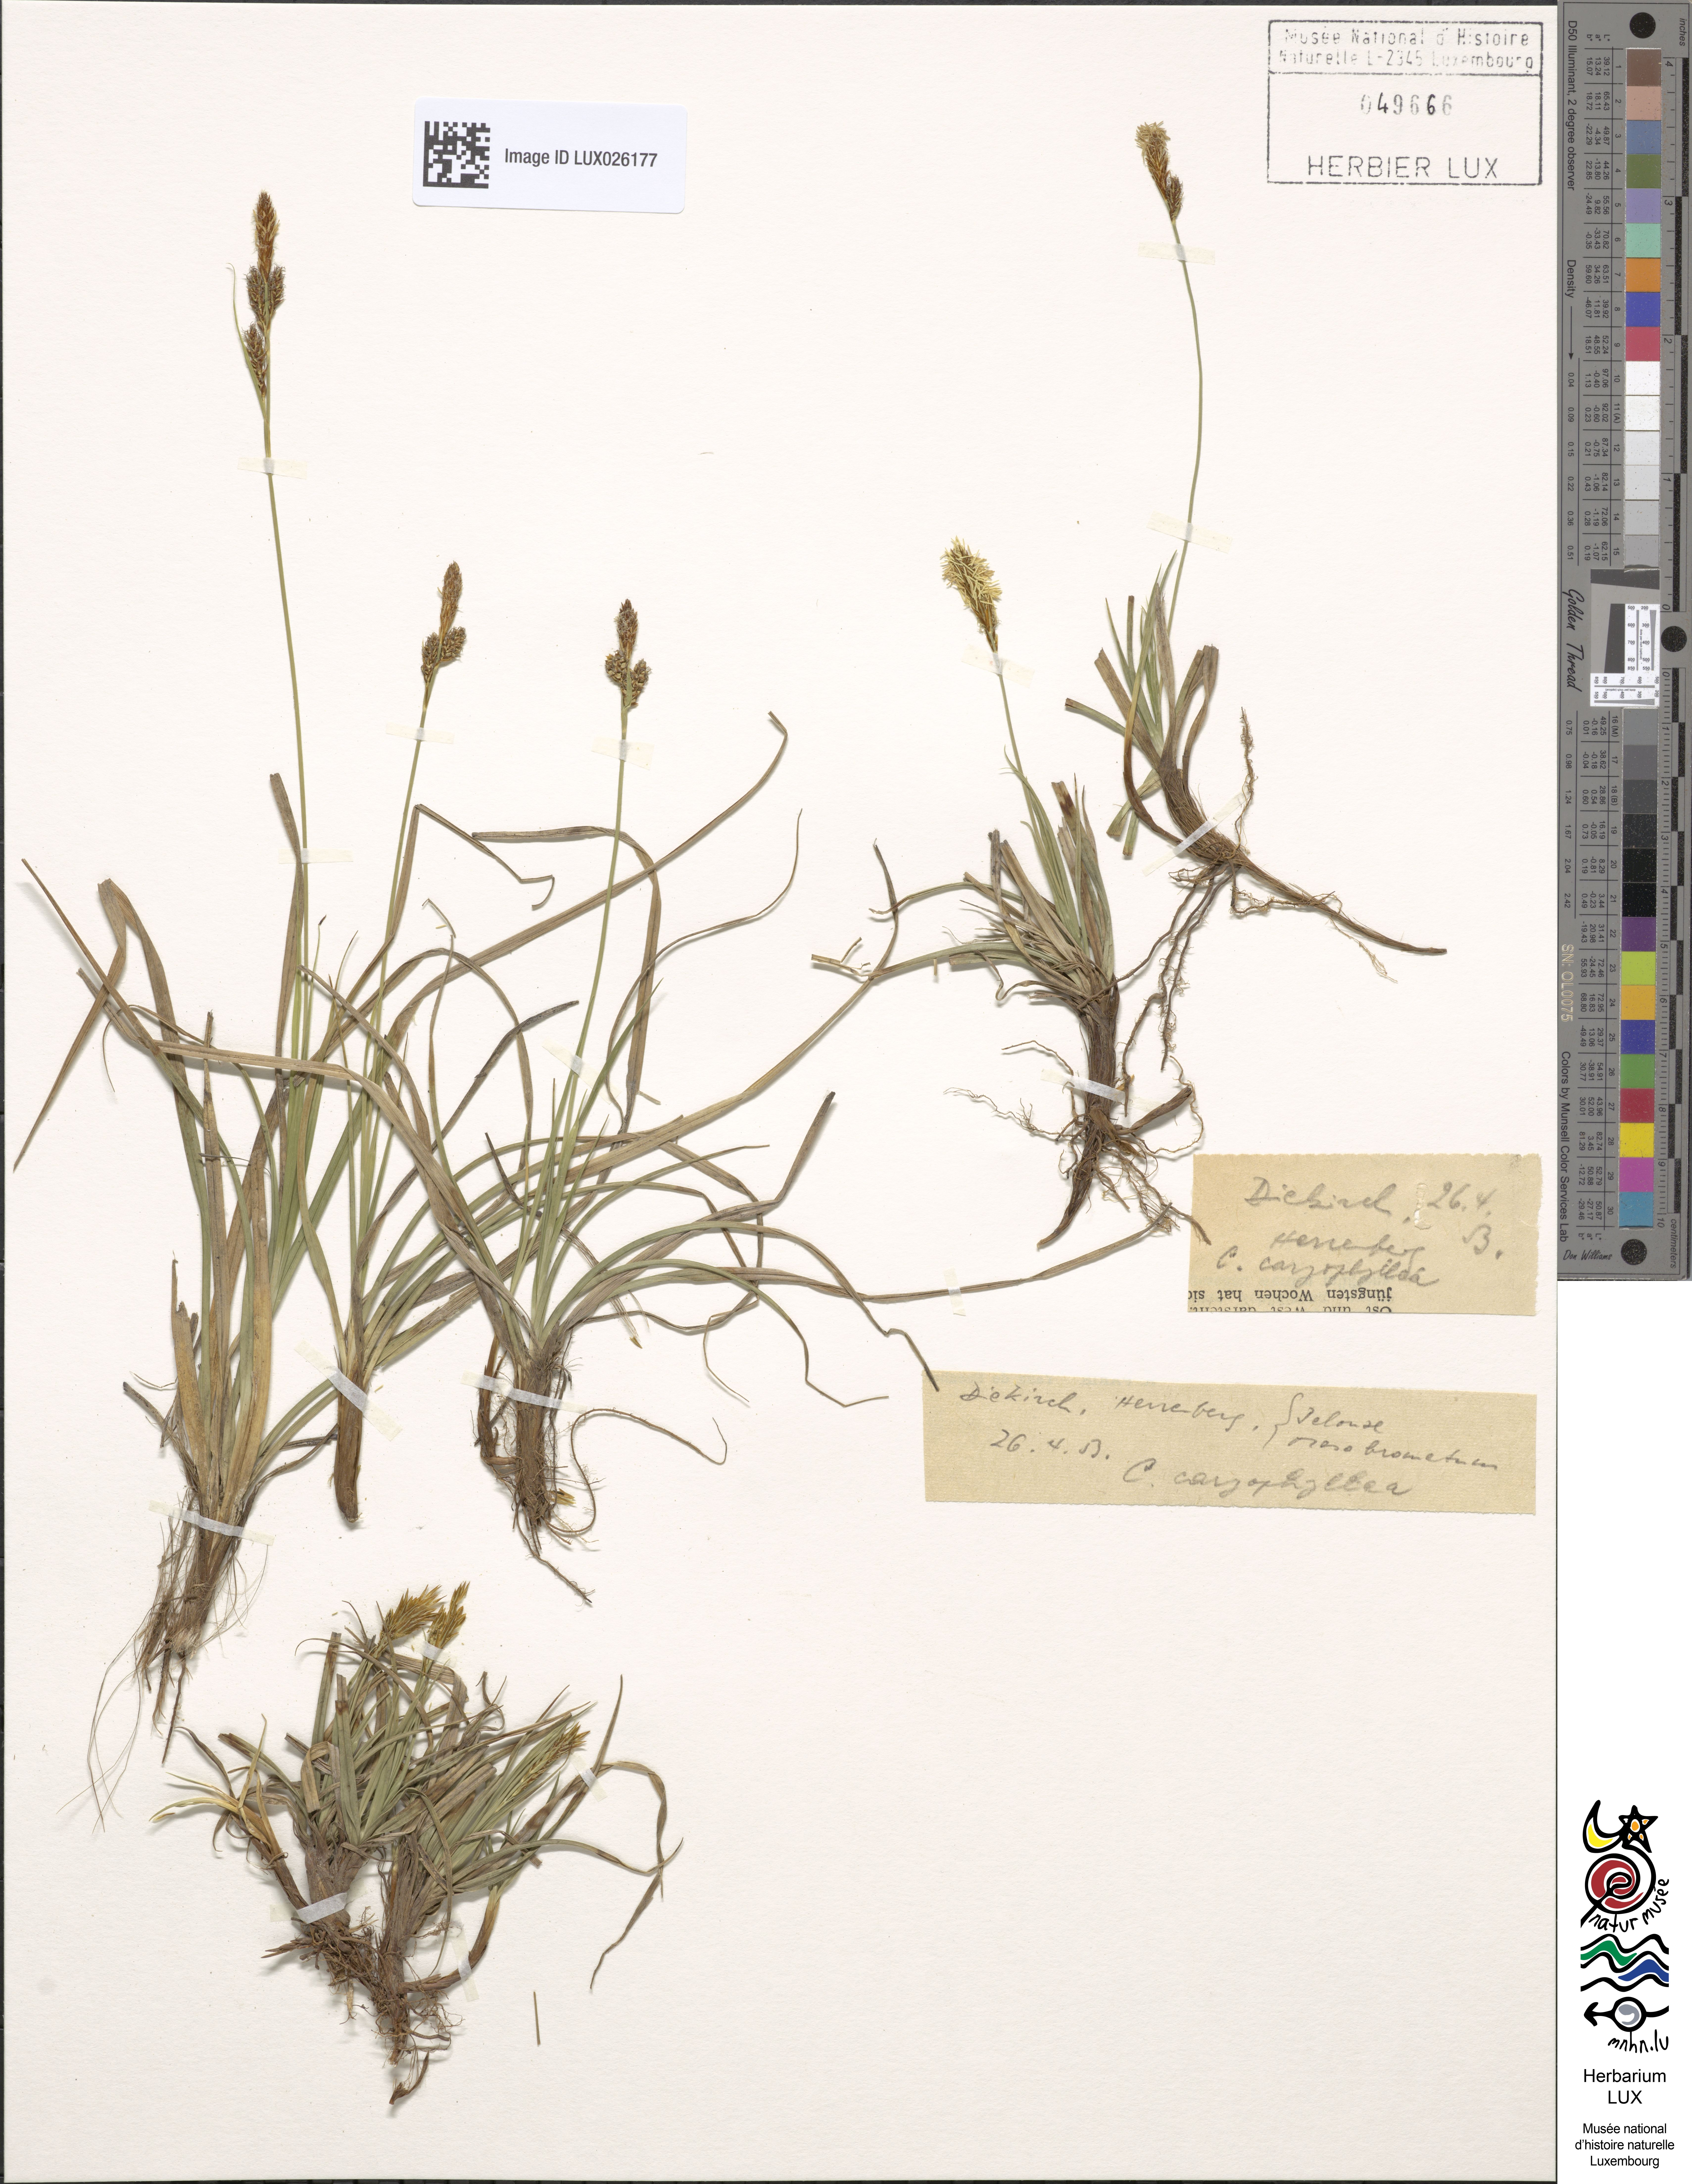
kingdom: Plantae
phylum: Tracheophyta
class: Liliopsida
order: Poales
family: Cyperaceae
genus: Carex
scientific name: Carex caryophyllea
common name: Spring sedge
